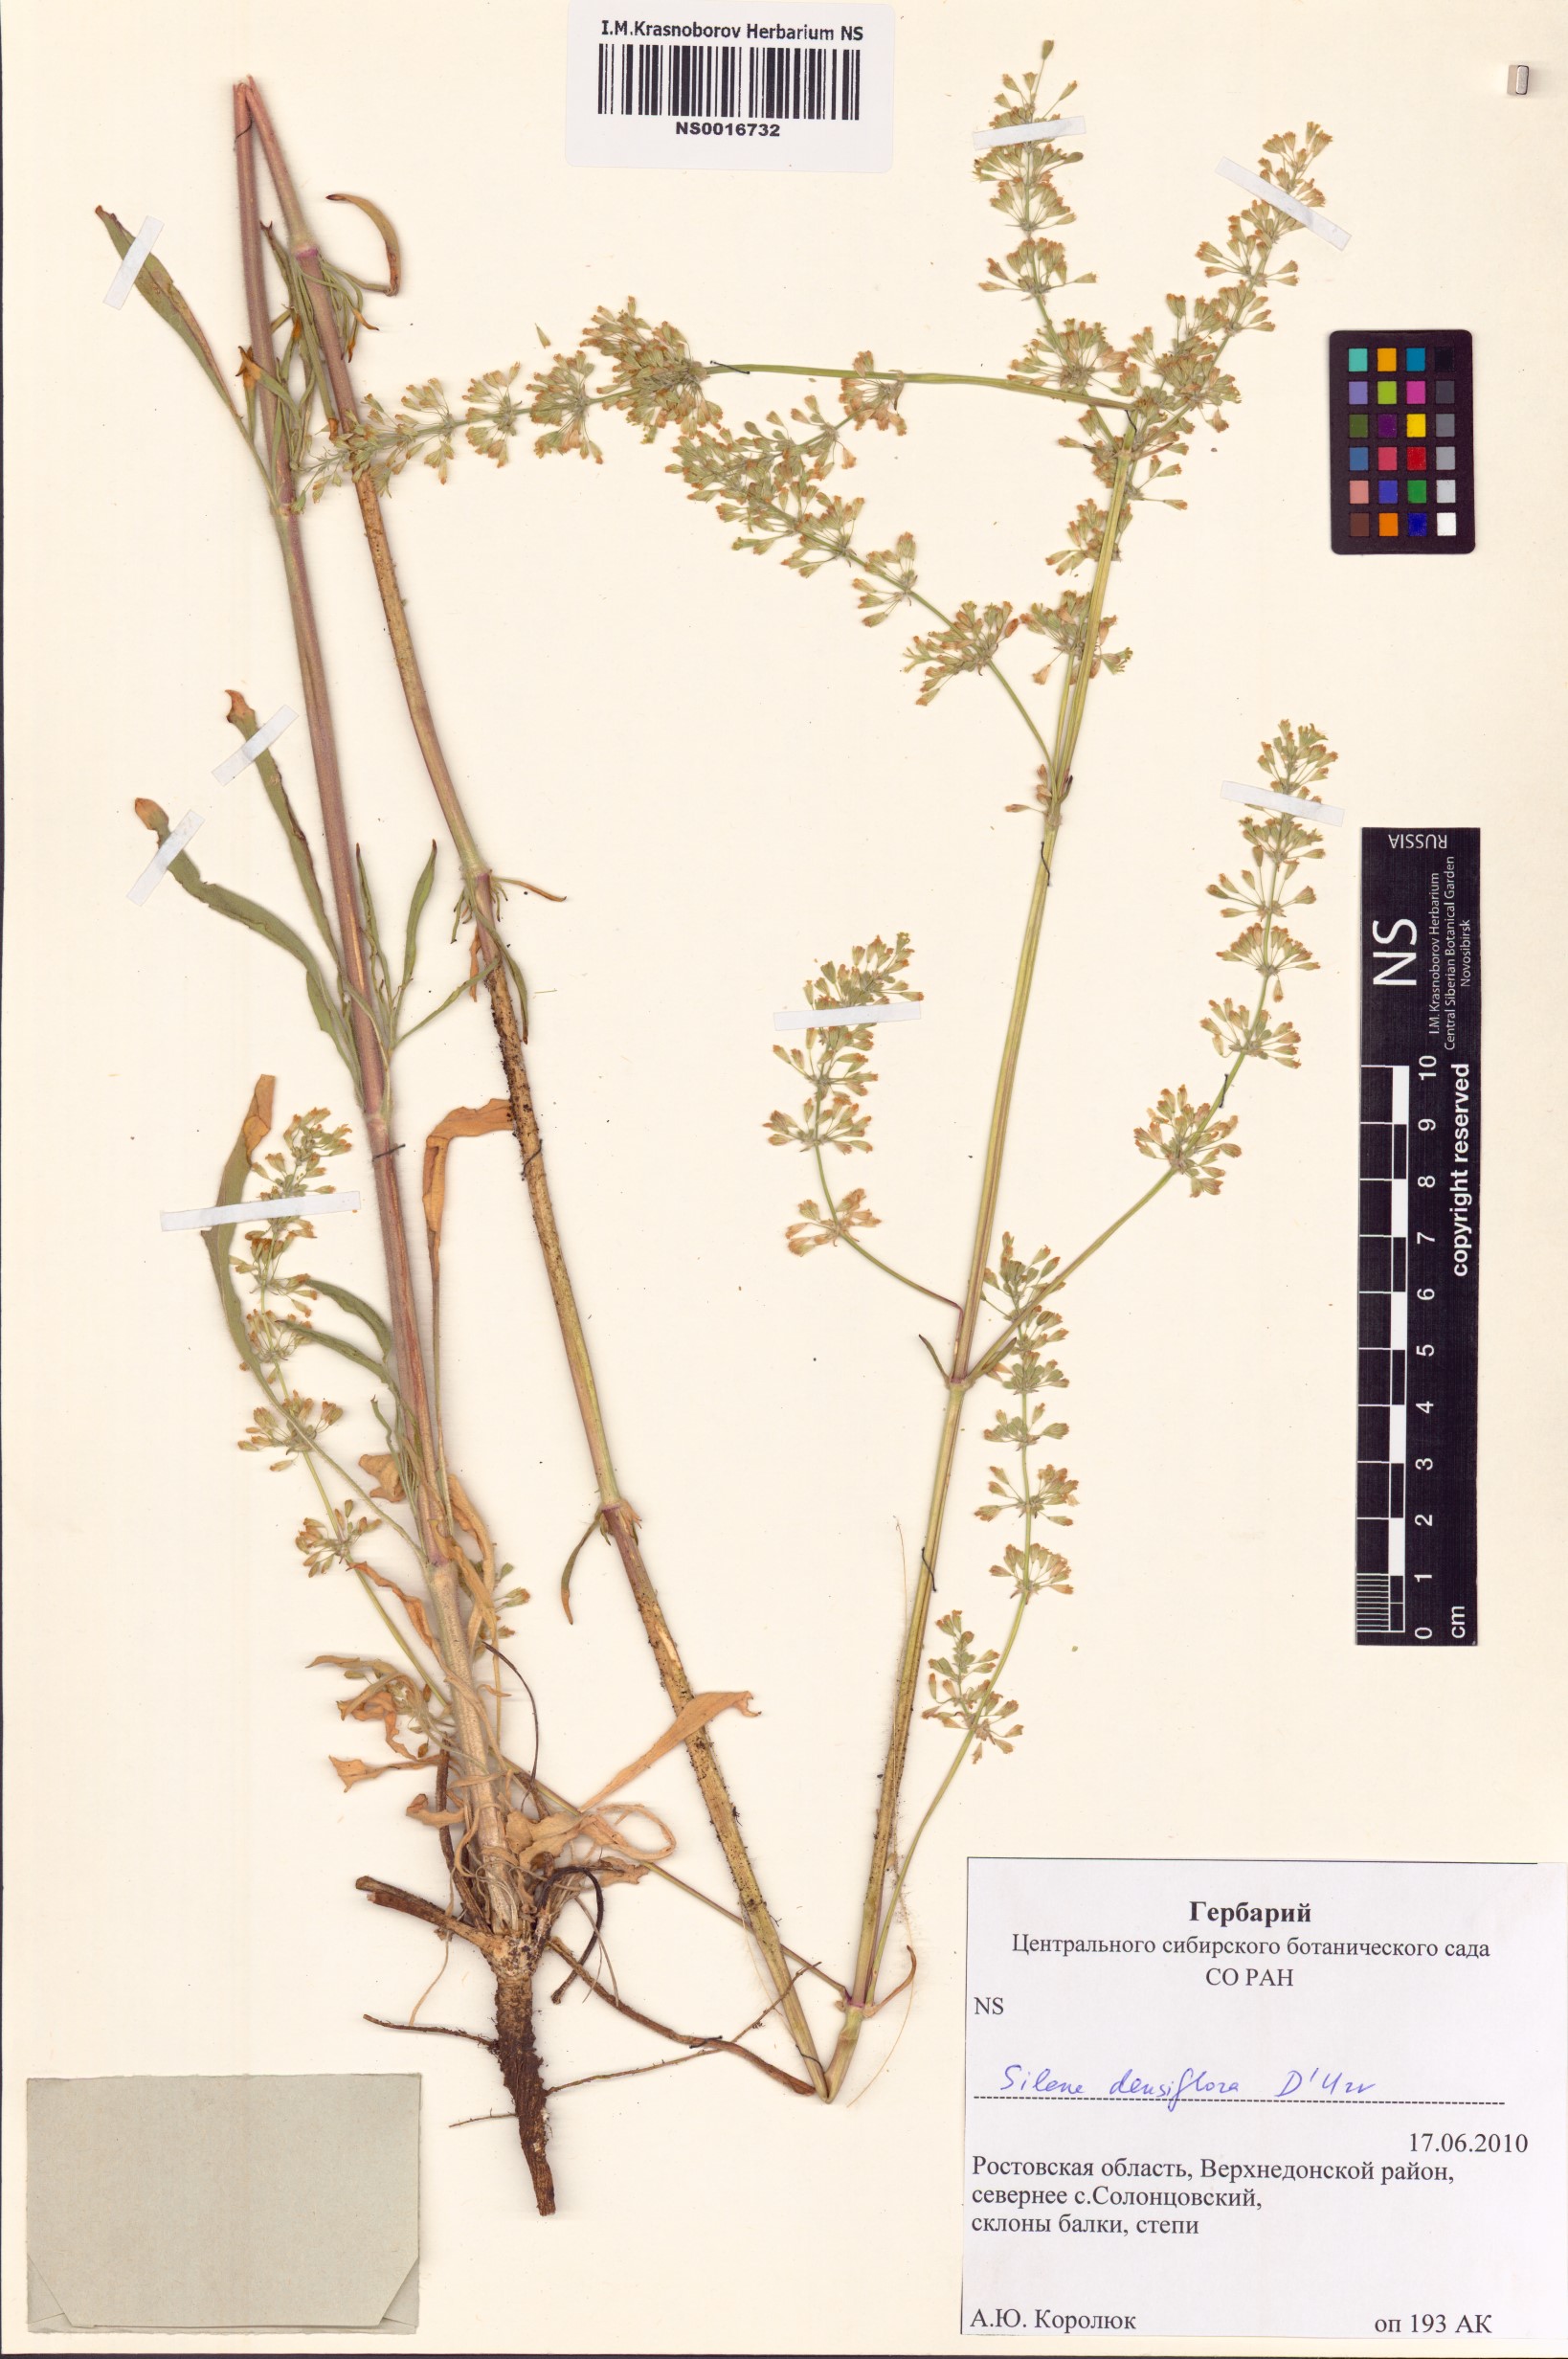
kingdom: Plantae
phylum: Tracheophyta
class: Magnoliopsida
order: Caryophyllales
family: Caryophyllaceae
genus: Silene
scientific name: Silene densiflora
